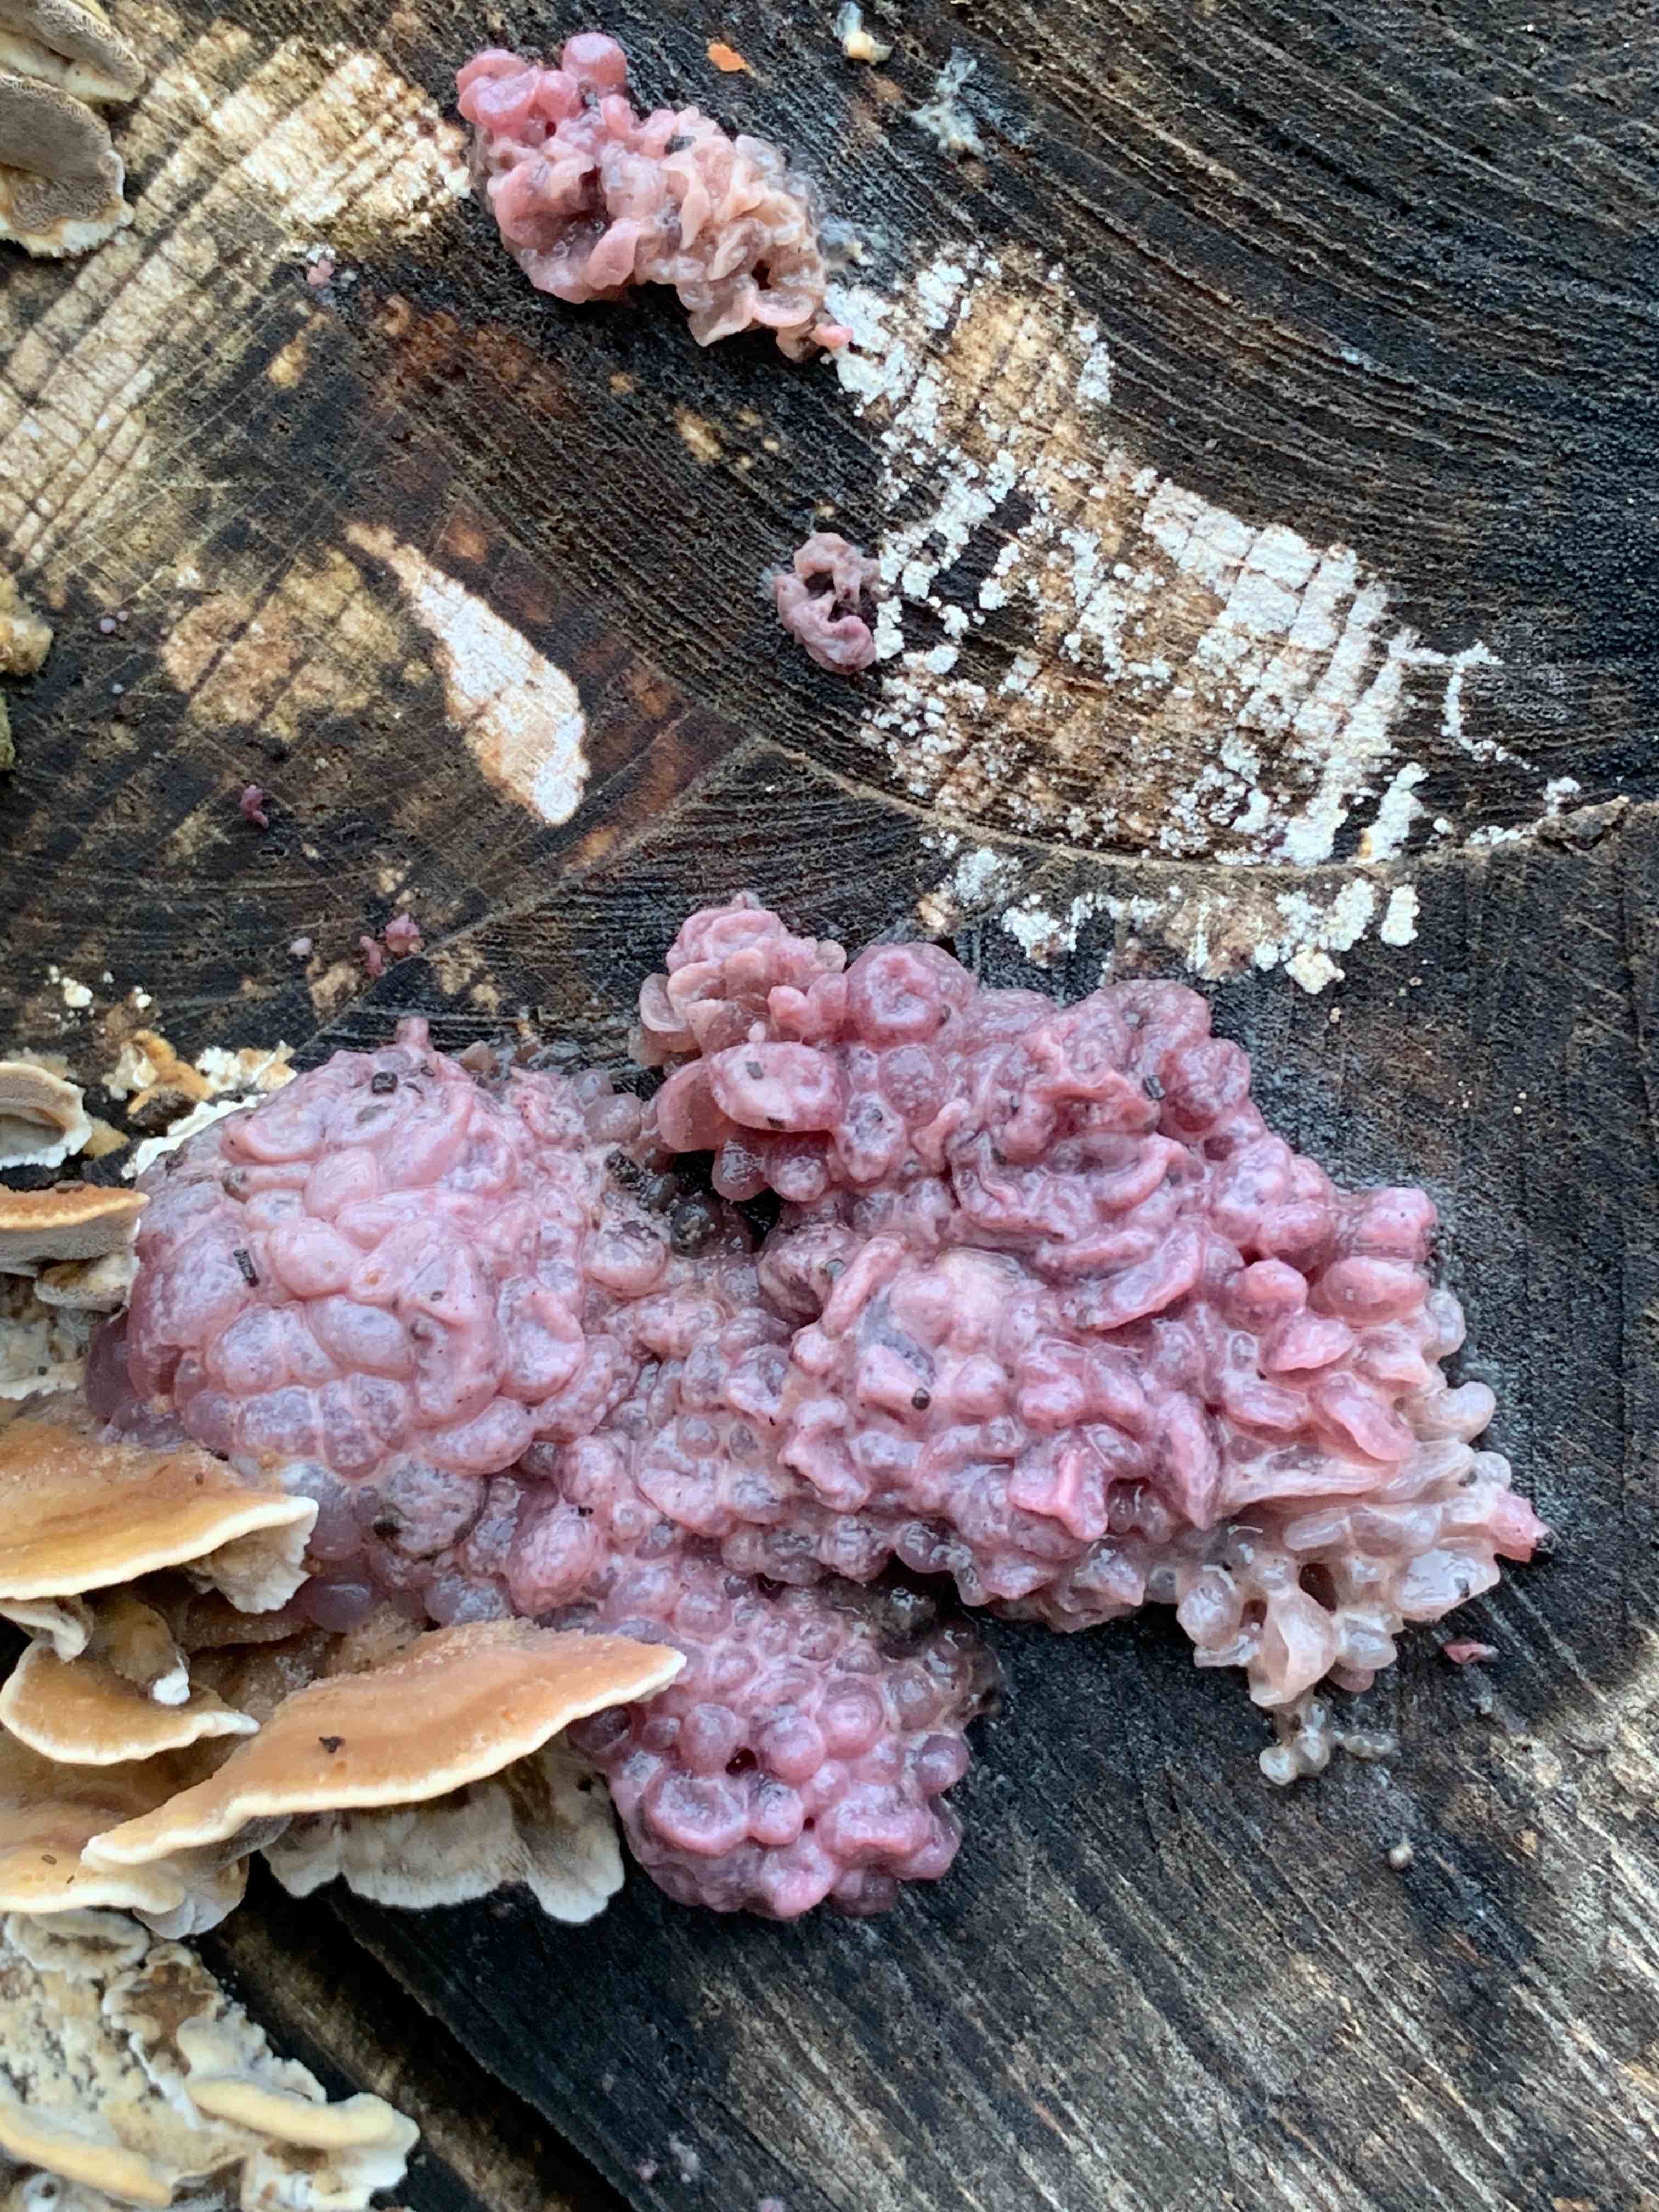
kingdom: Fungi
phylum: Ascomycota
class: Leotiomycetes
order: Helotiales
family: Gelatinodiscaceae
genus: Ascocoryne
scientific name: Ascocoryne sarcoides
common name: rødlilla sejskive
